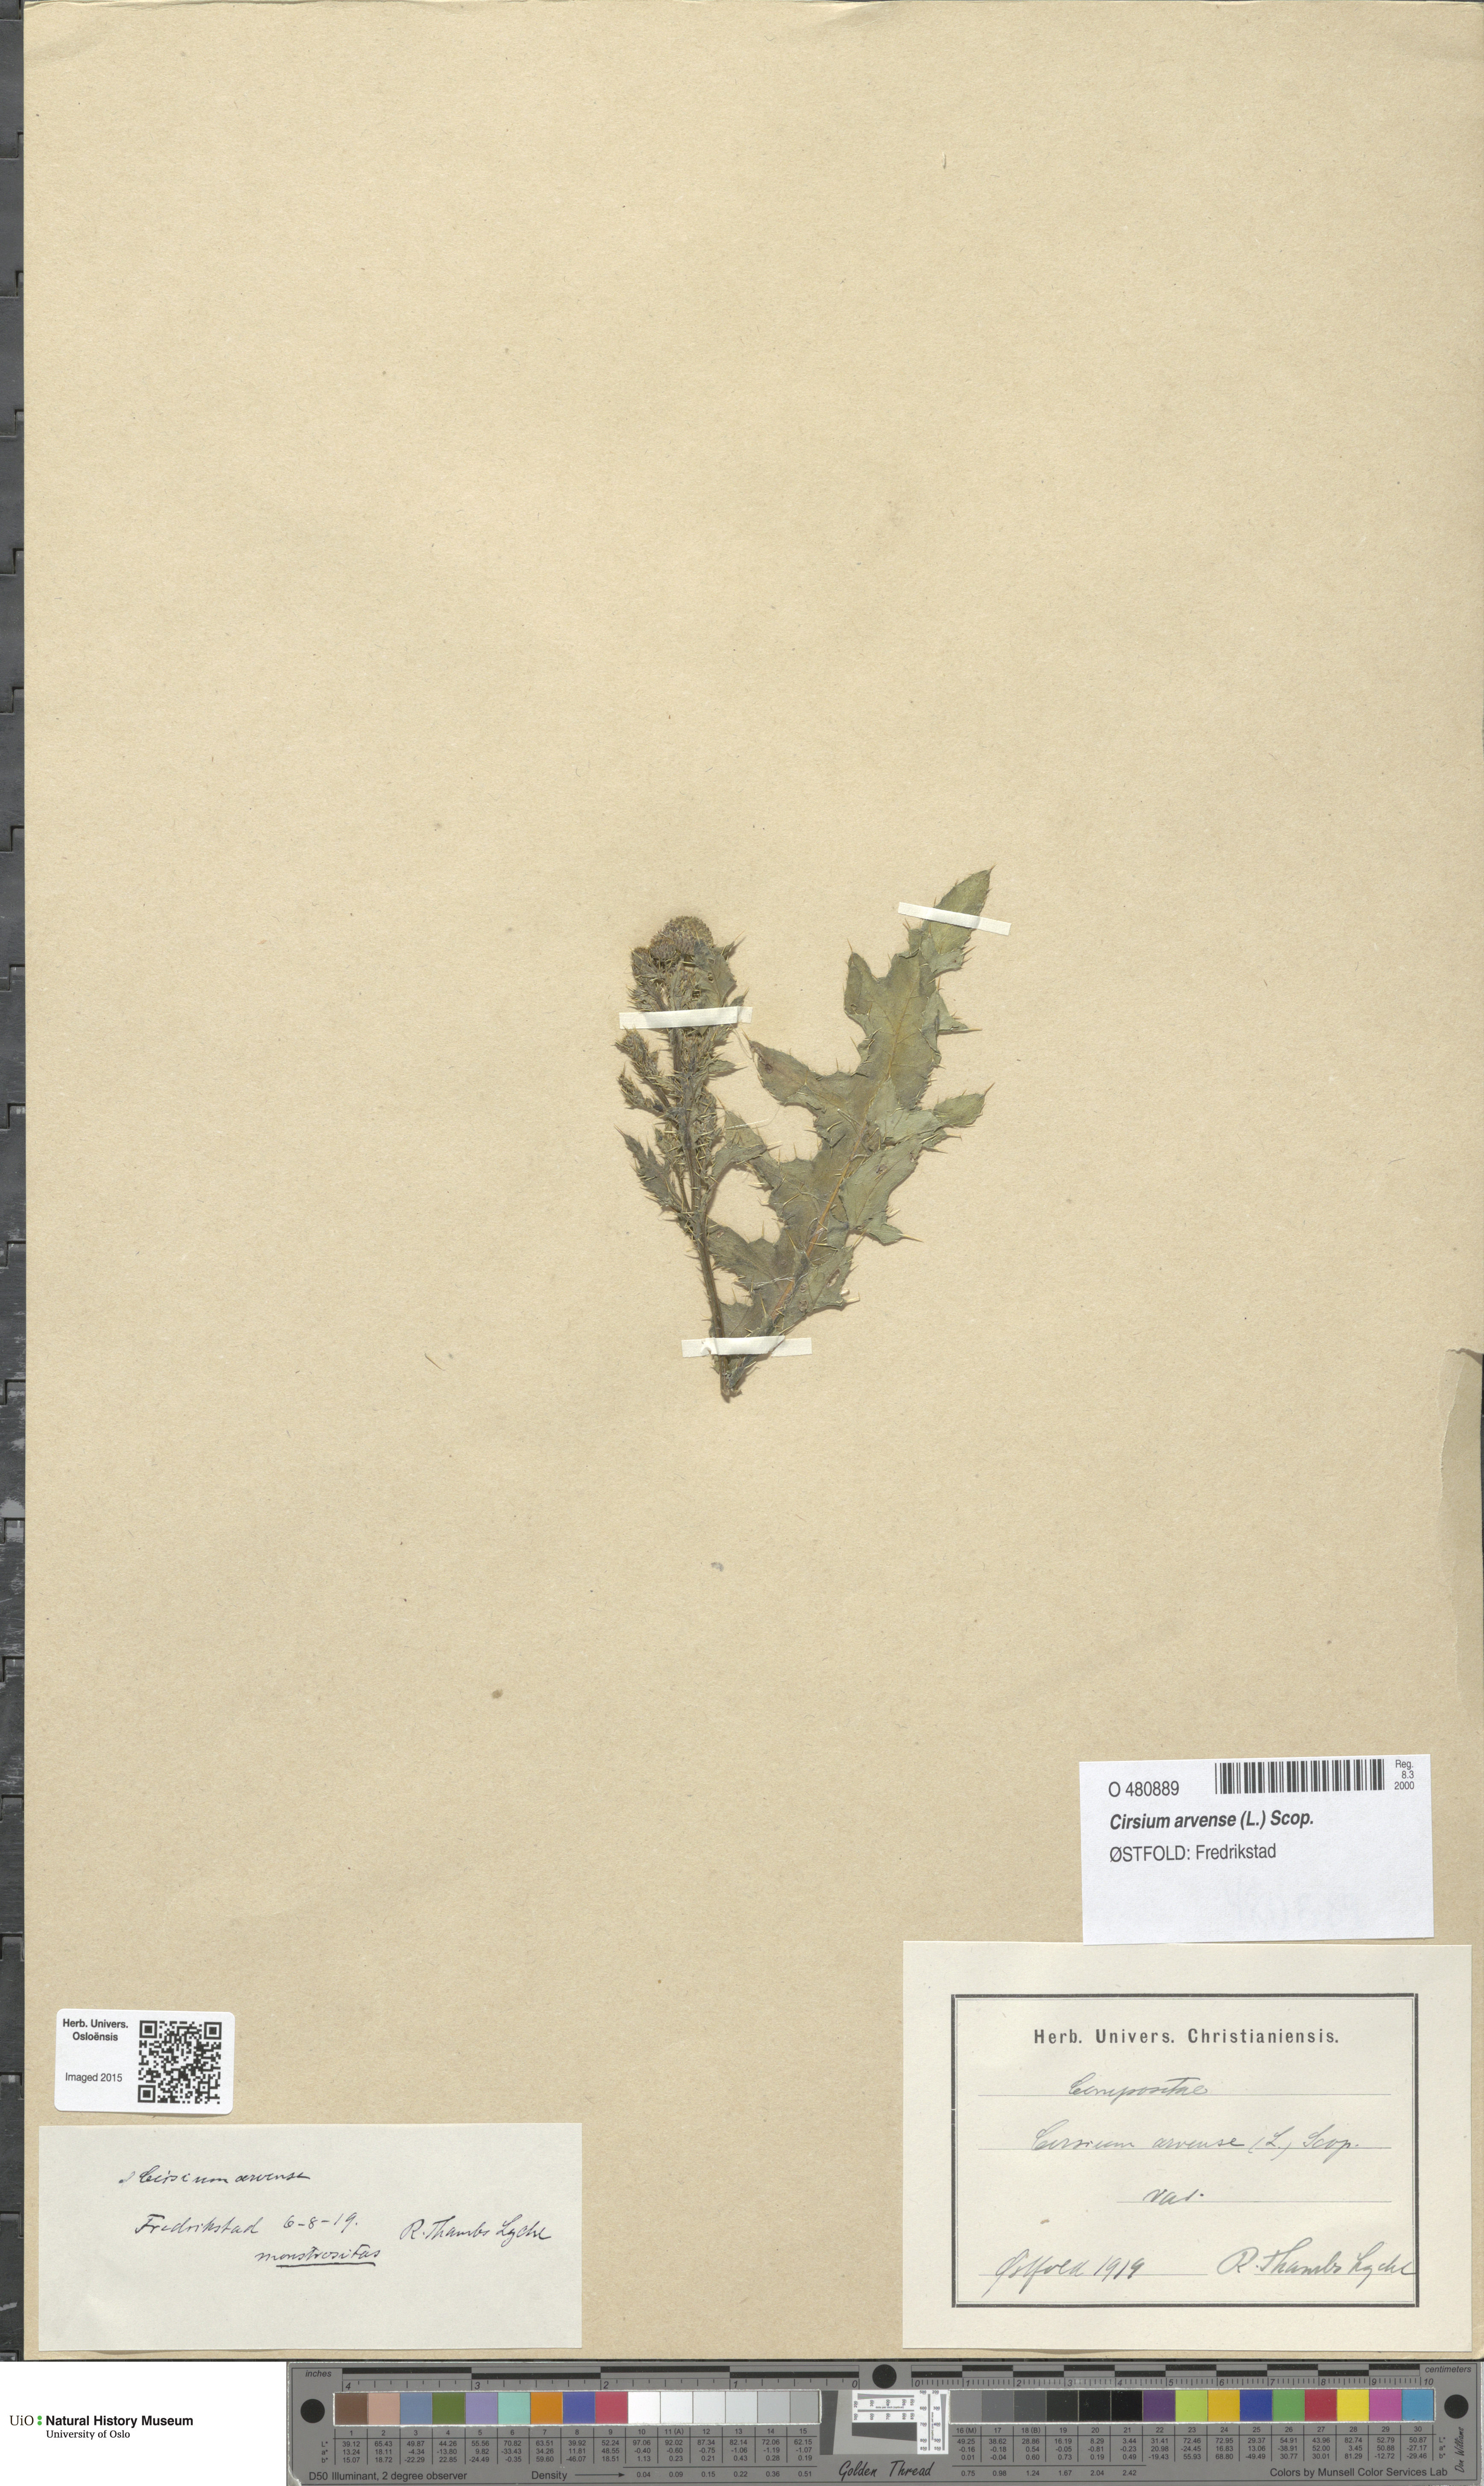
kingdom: Plantae
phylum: Tracheophyta
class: Magnoliopsida
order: Asterales
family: Asteraceae
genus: Cirsium
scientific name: Cirsium arvense
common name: Creeping thistle
